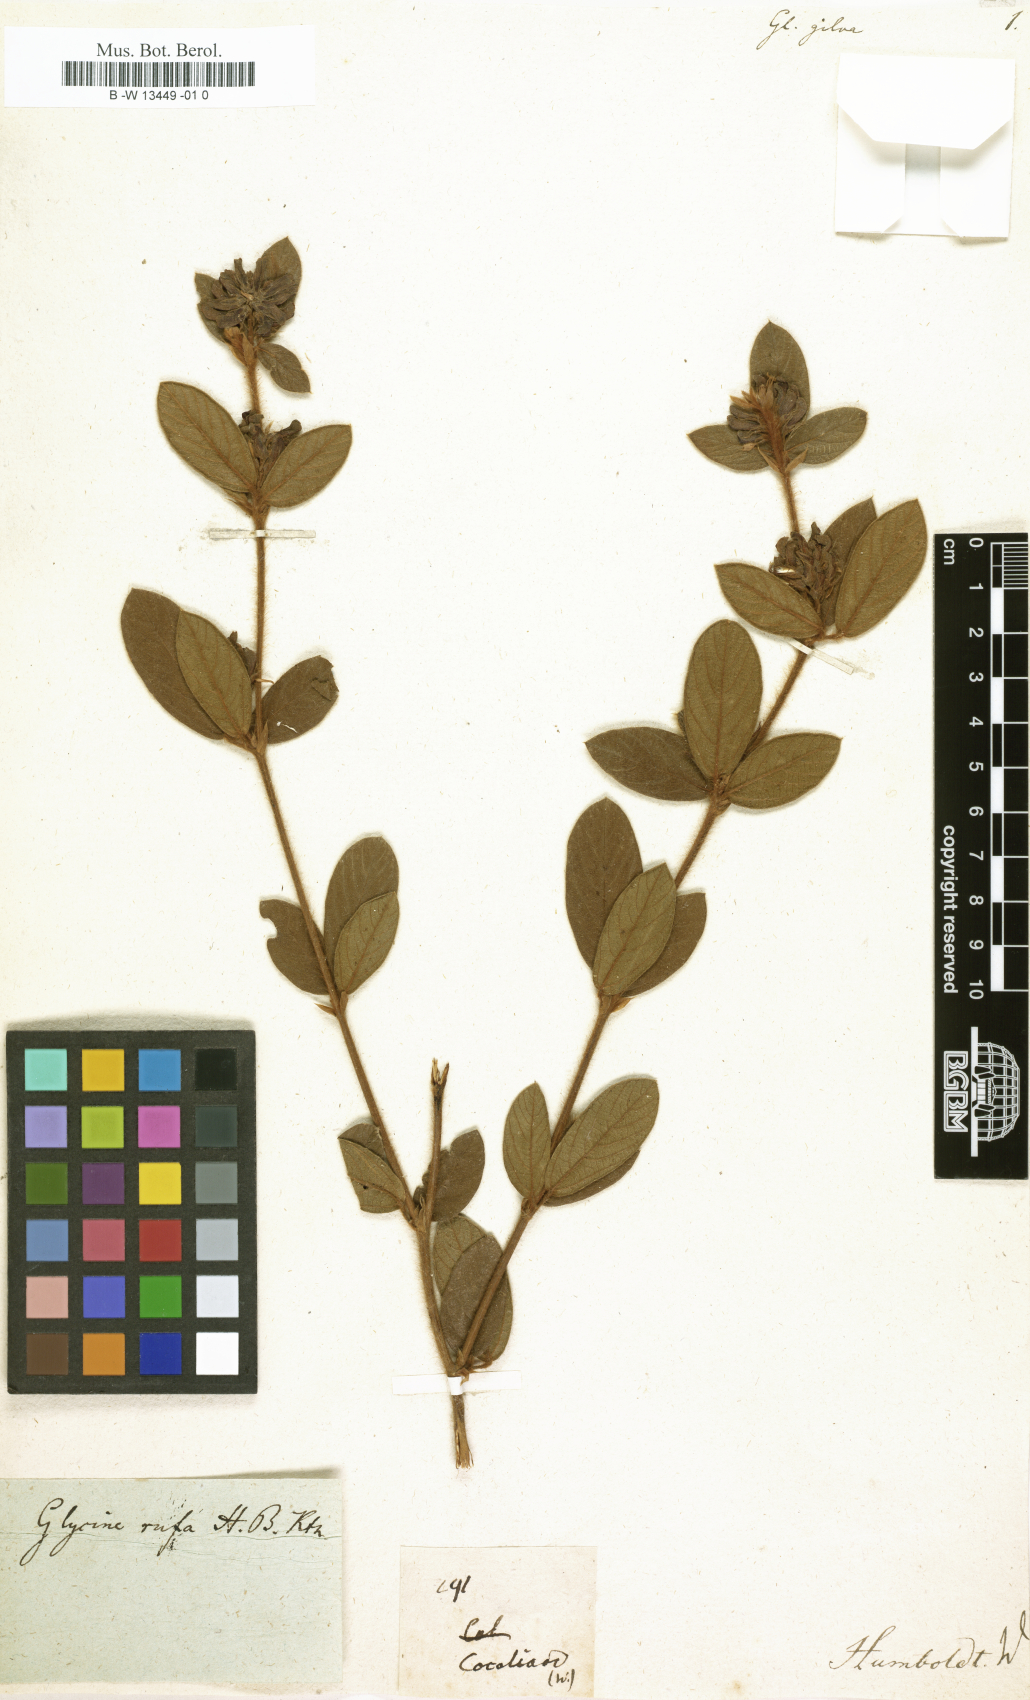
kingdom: Plantae
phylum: Tracheophyta
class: Magnoliopsida
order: Fabales
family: Fabaceae
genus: Glycine
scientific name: Glycine
